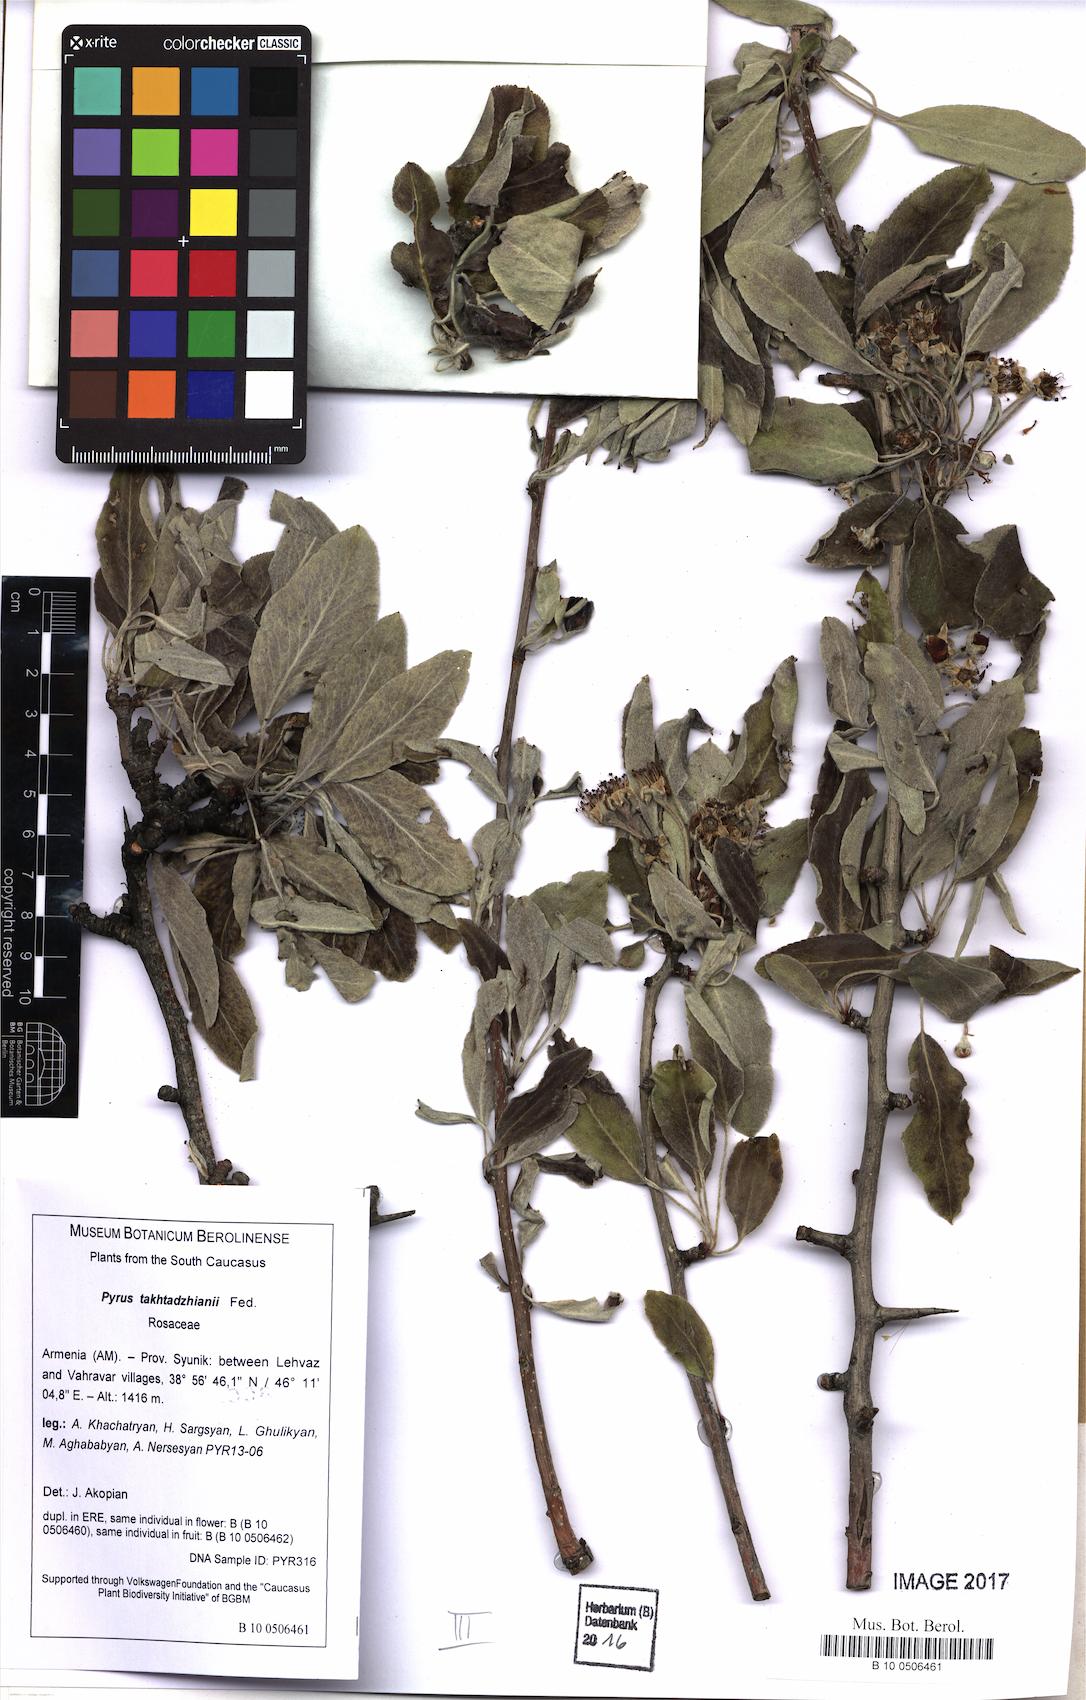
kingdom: Plantae
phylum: Tracheophyta
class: Magnoliopsida
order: Rosales
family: Rosaceae
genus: Pyrus
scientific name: Pyrus takhtadzhianii
